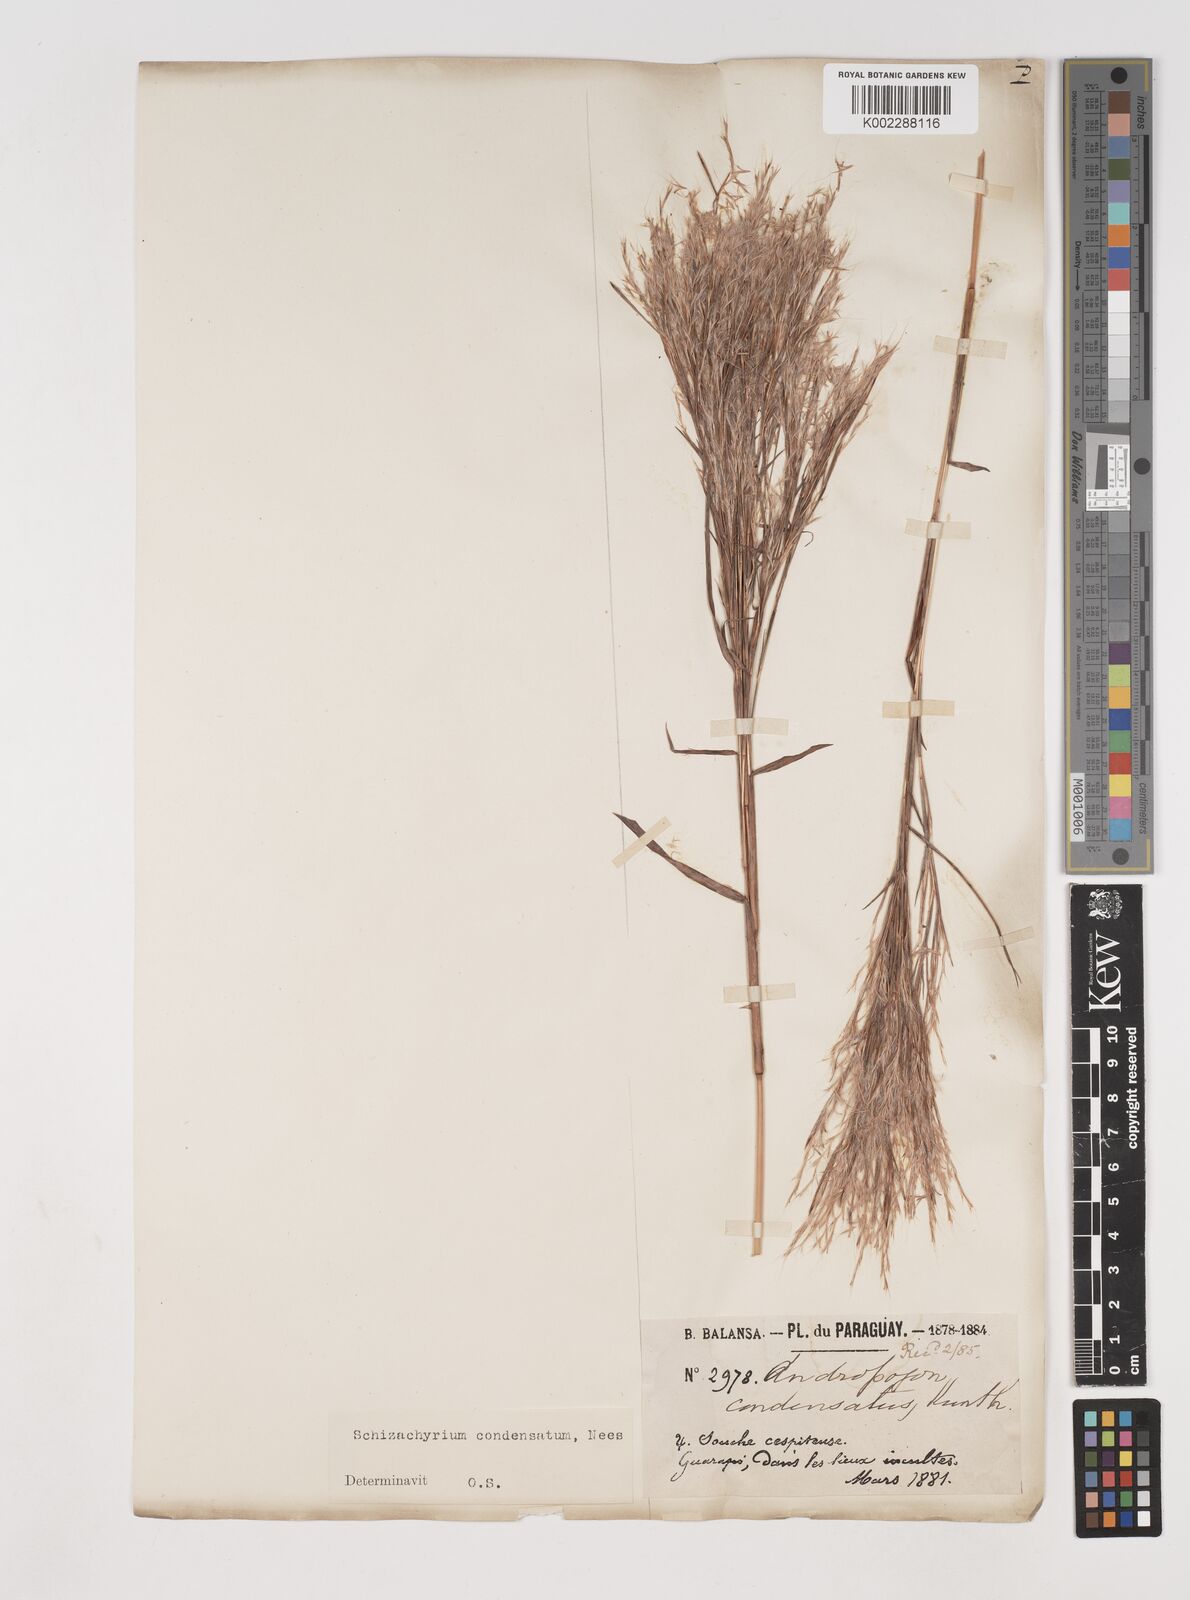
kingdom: Plantae
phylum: Tracheophyta
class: Liliopsida
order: Poales
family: Poaceae
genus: Schizachyrium
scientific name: Schizachyrium condensatum
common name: Bush beardgrass
